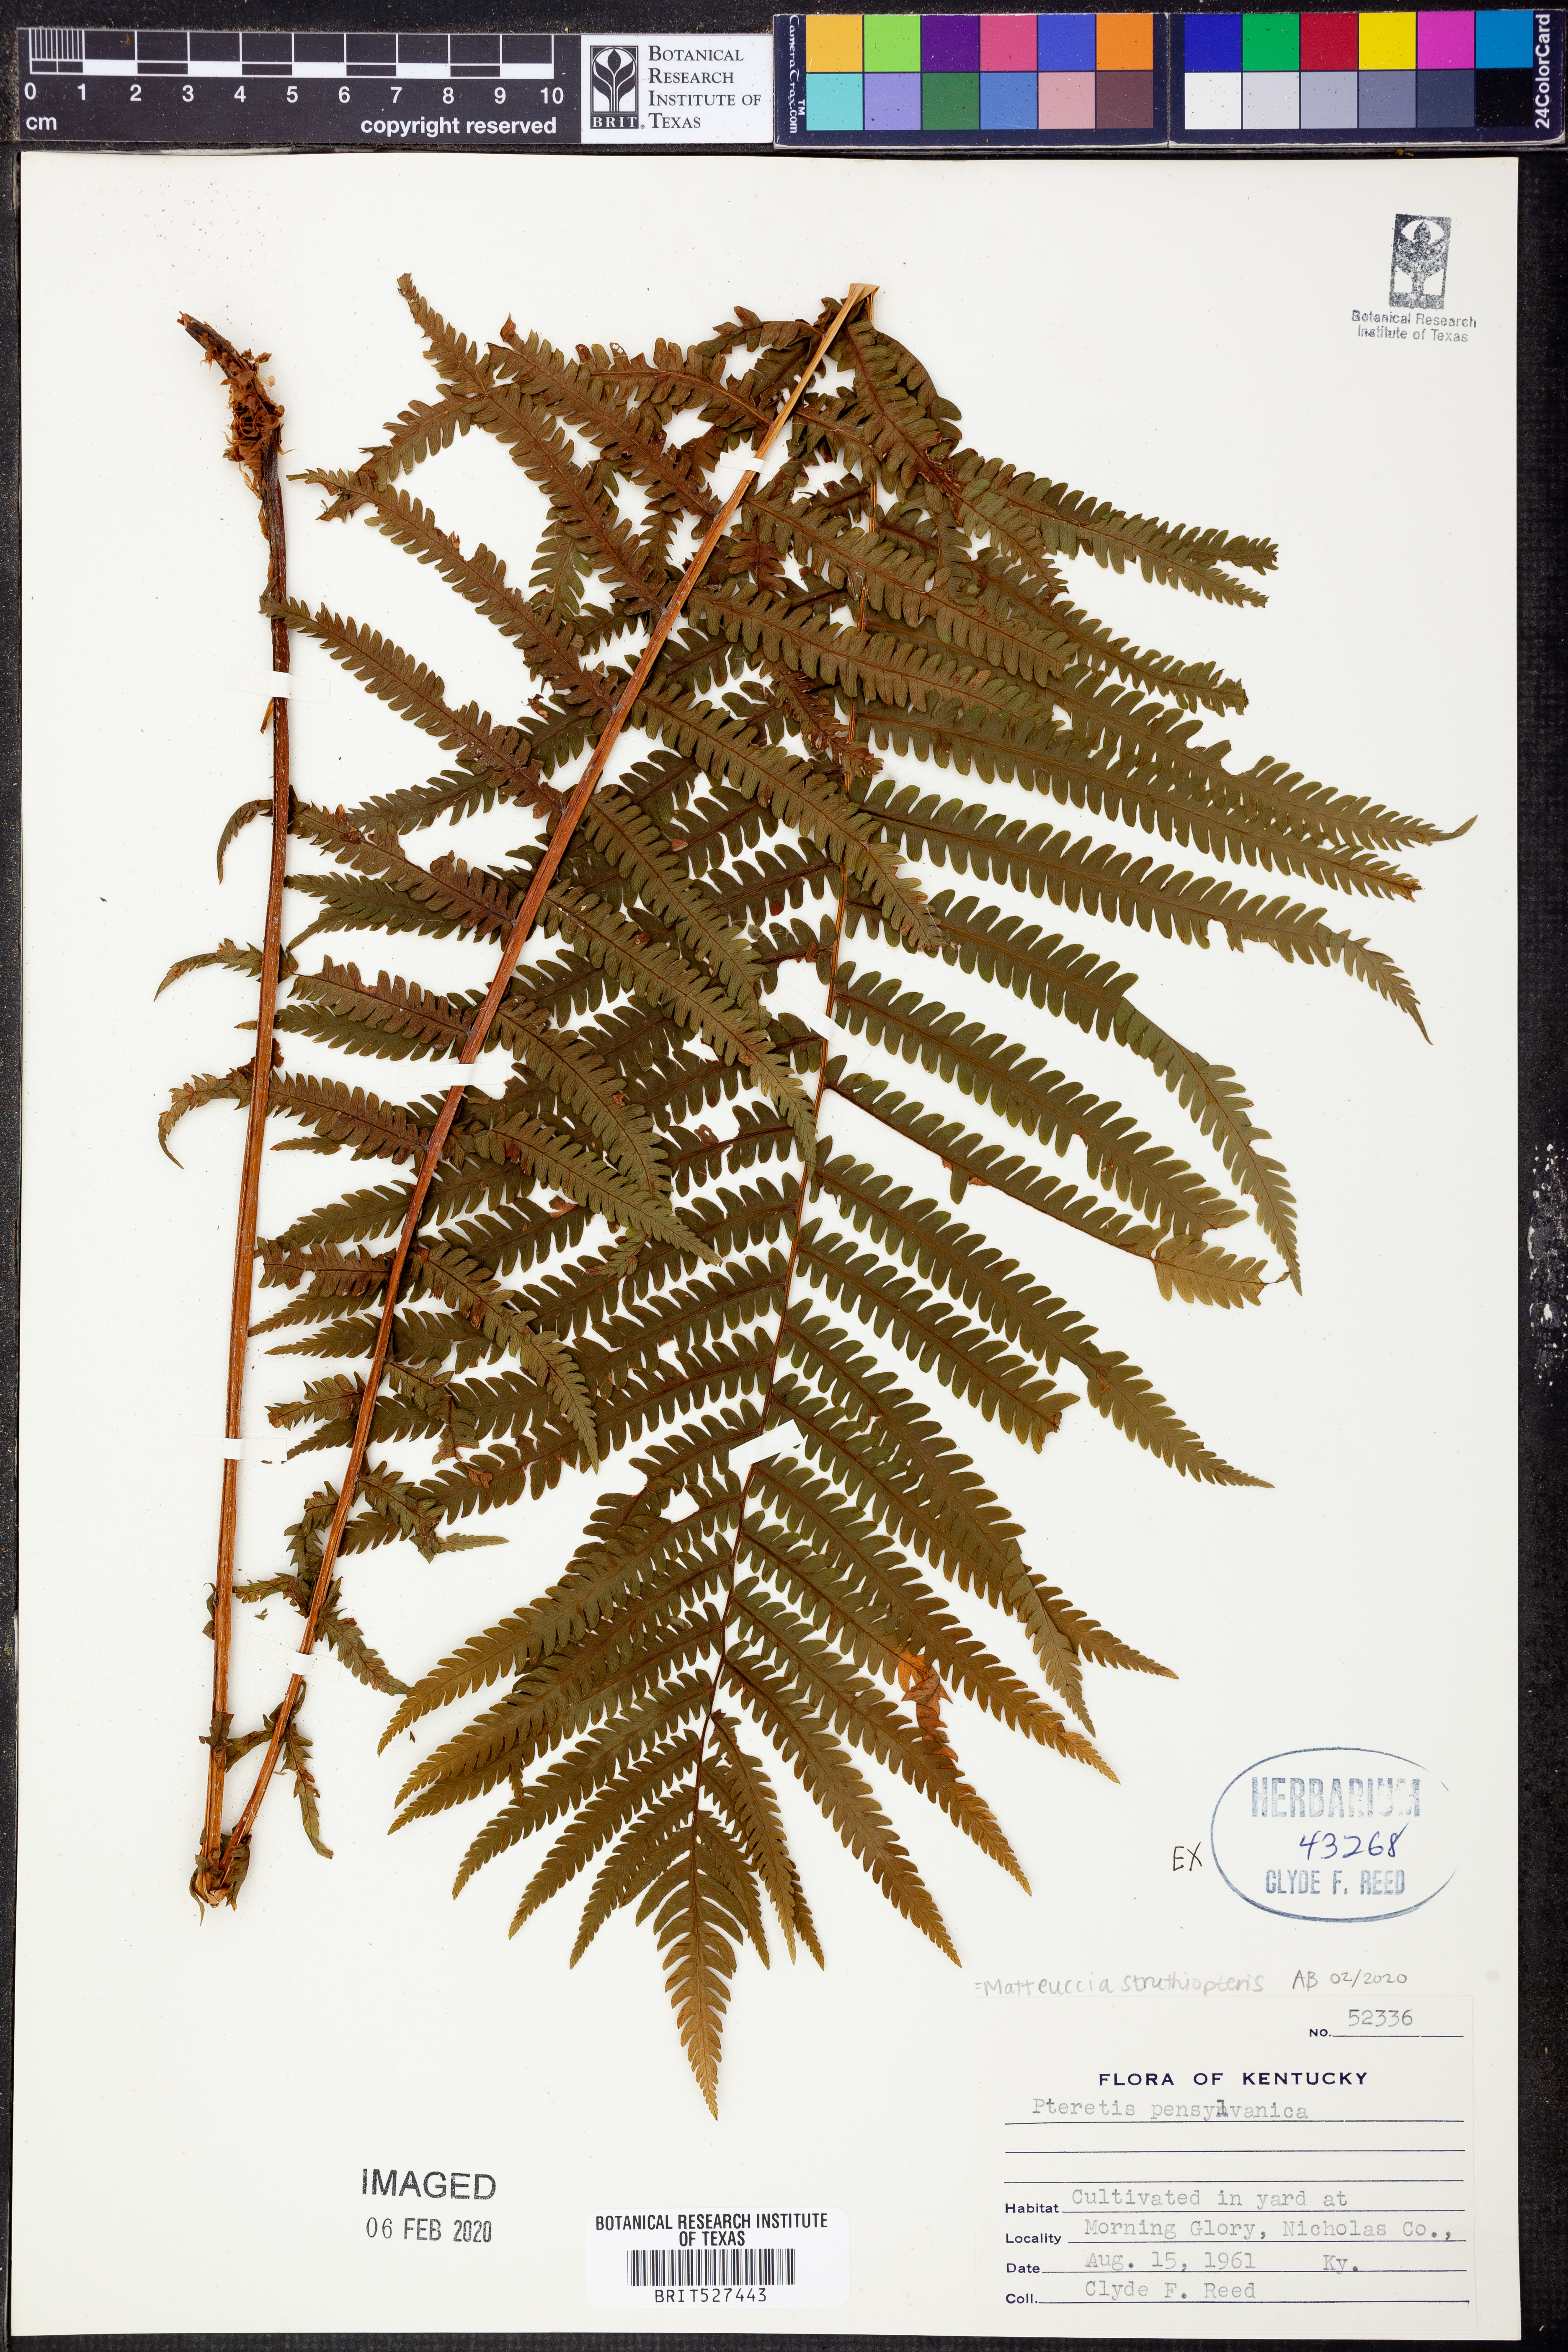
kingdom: Plantae
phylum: Tracheophyta
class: Polypodiopsida
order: Polypodiales
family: Onocleaceae
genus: Matteuccia
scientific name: Matteuccia struthiopteris
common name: Ostrich fern
